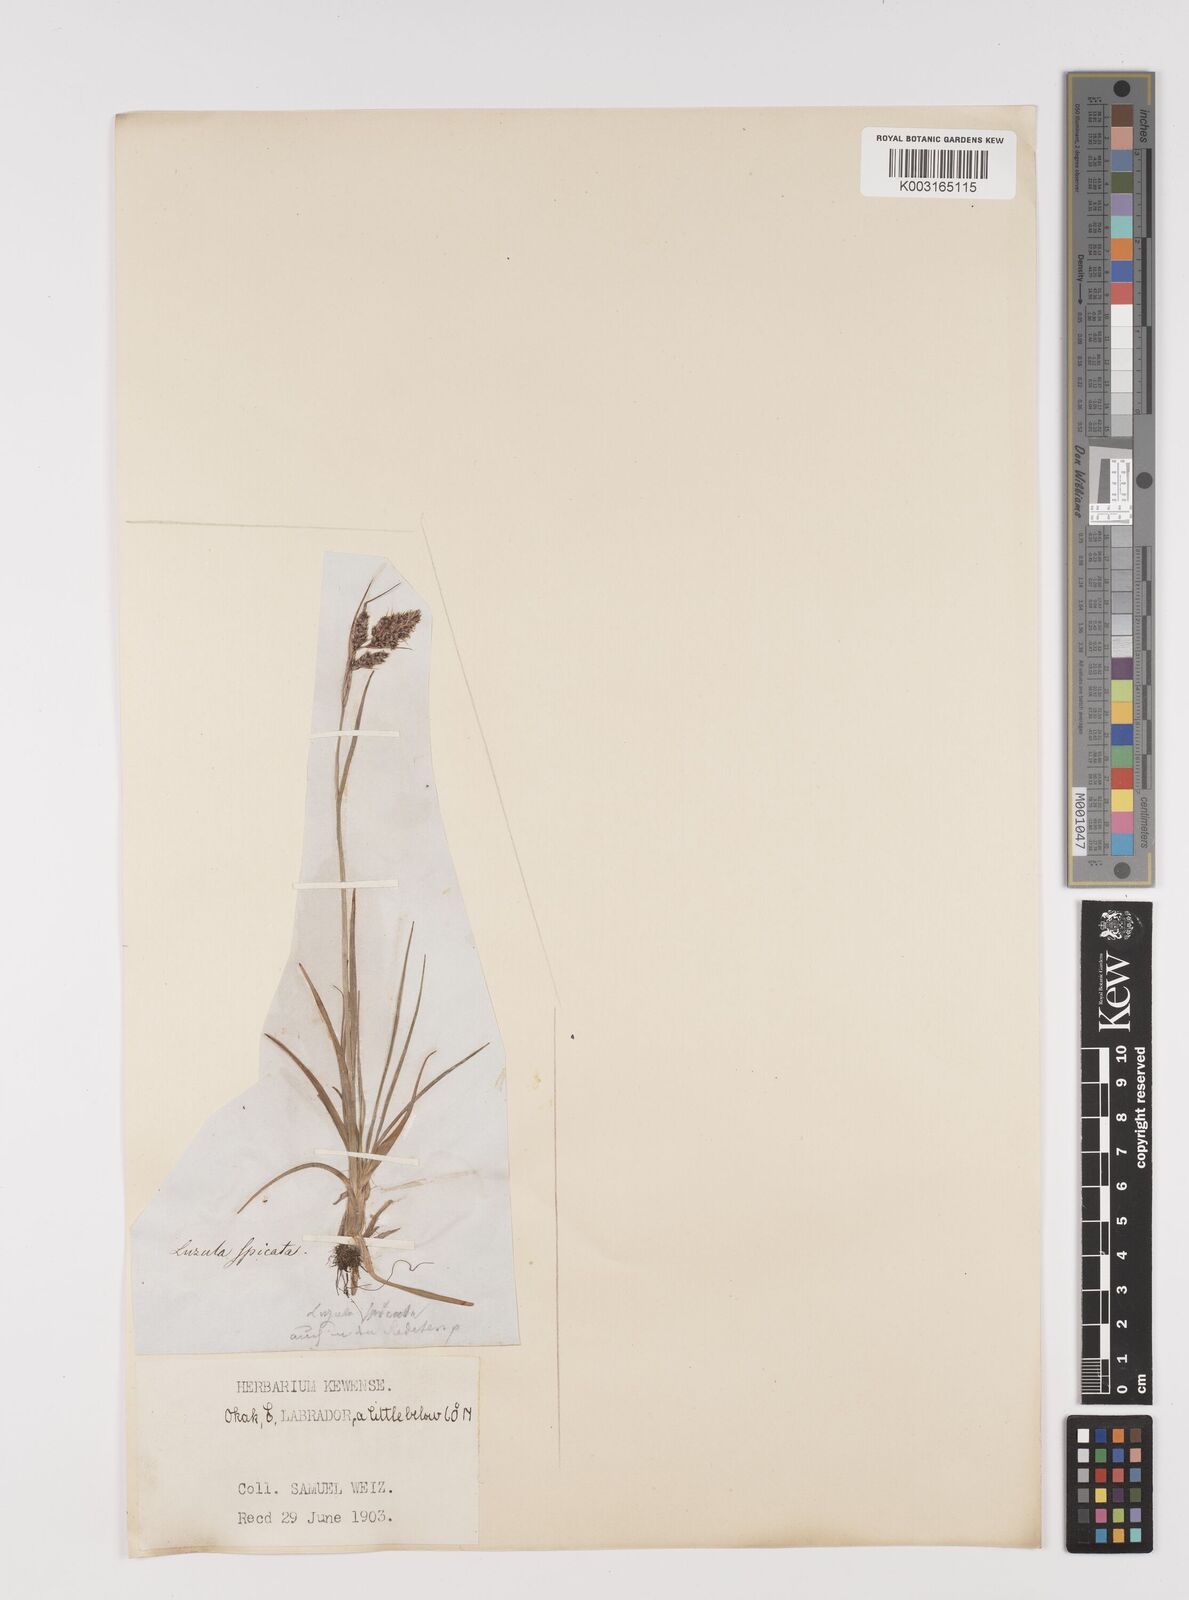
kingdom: Plantae
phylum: Tracheophyta
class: Liliopsida
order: Poales
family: Juncaceae
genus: Luzula
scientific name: Luzula spicata
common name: Spiked wood-rush
